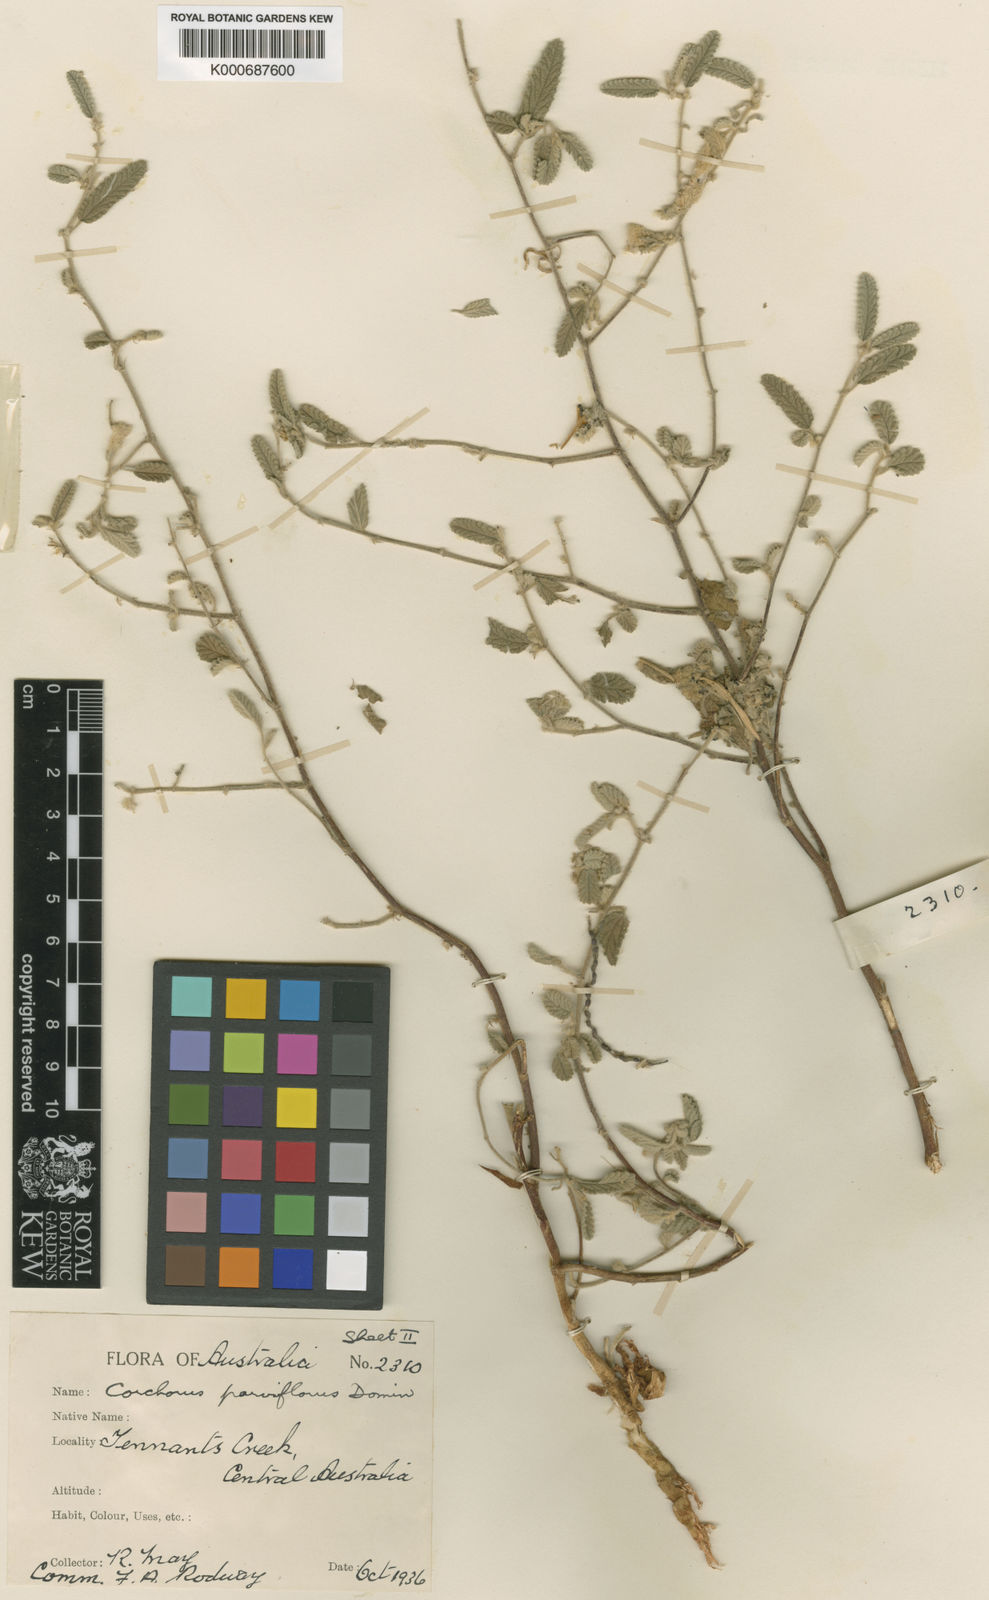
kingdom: Plantae
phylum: Tracheophyta
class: Magnoliopsida
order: Malvales
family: Malvaceae
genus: Corchorus
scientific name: Corchorus sidoides
